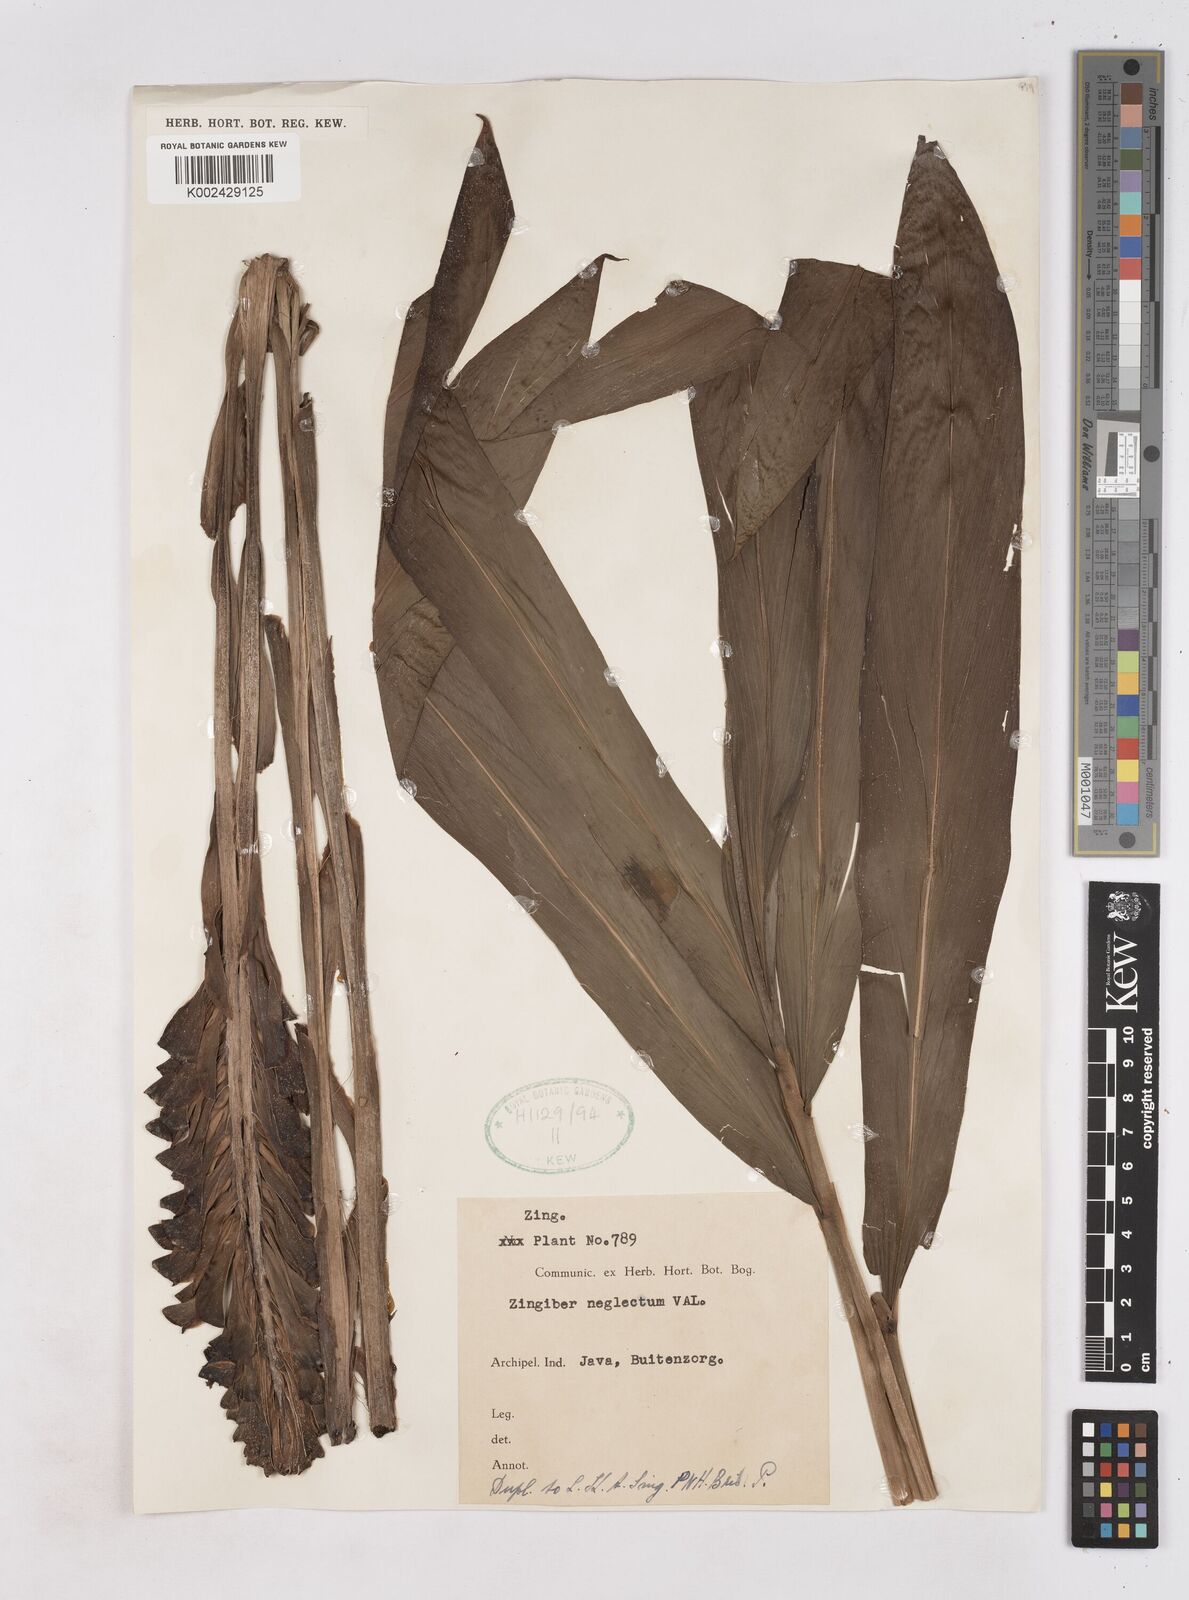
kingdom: Plantae
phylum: Tracheophyta
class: Liliopsida
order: Zingiberales
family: Zingiberaceae
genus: Zingiber
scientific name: Zingiber neglectum
